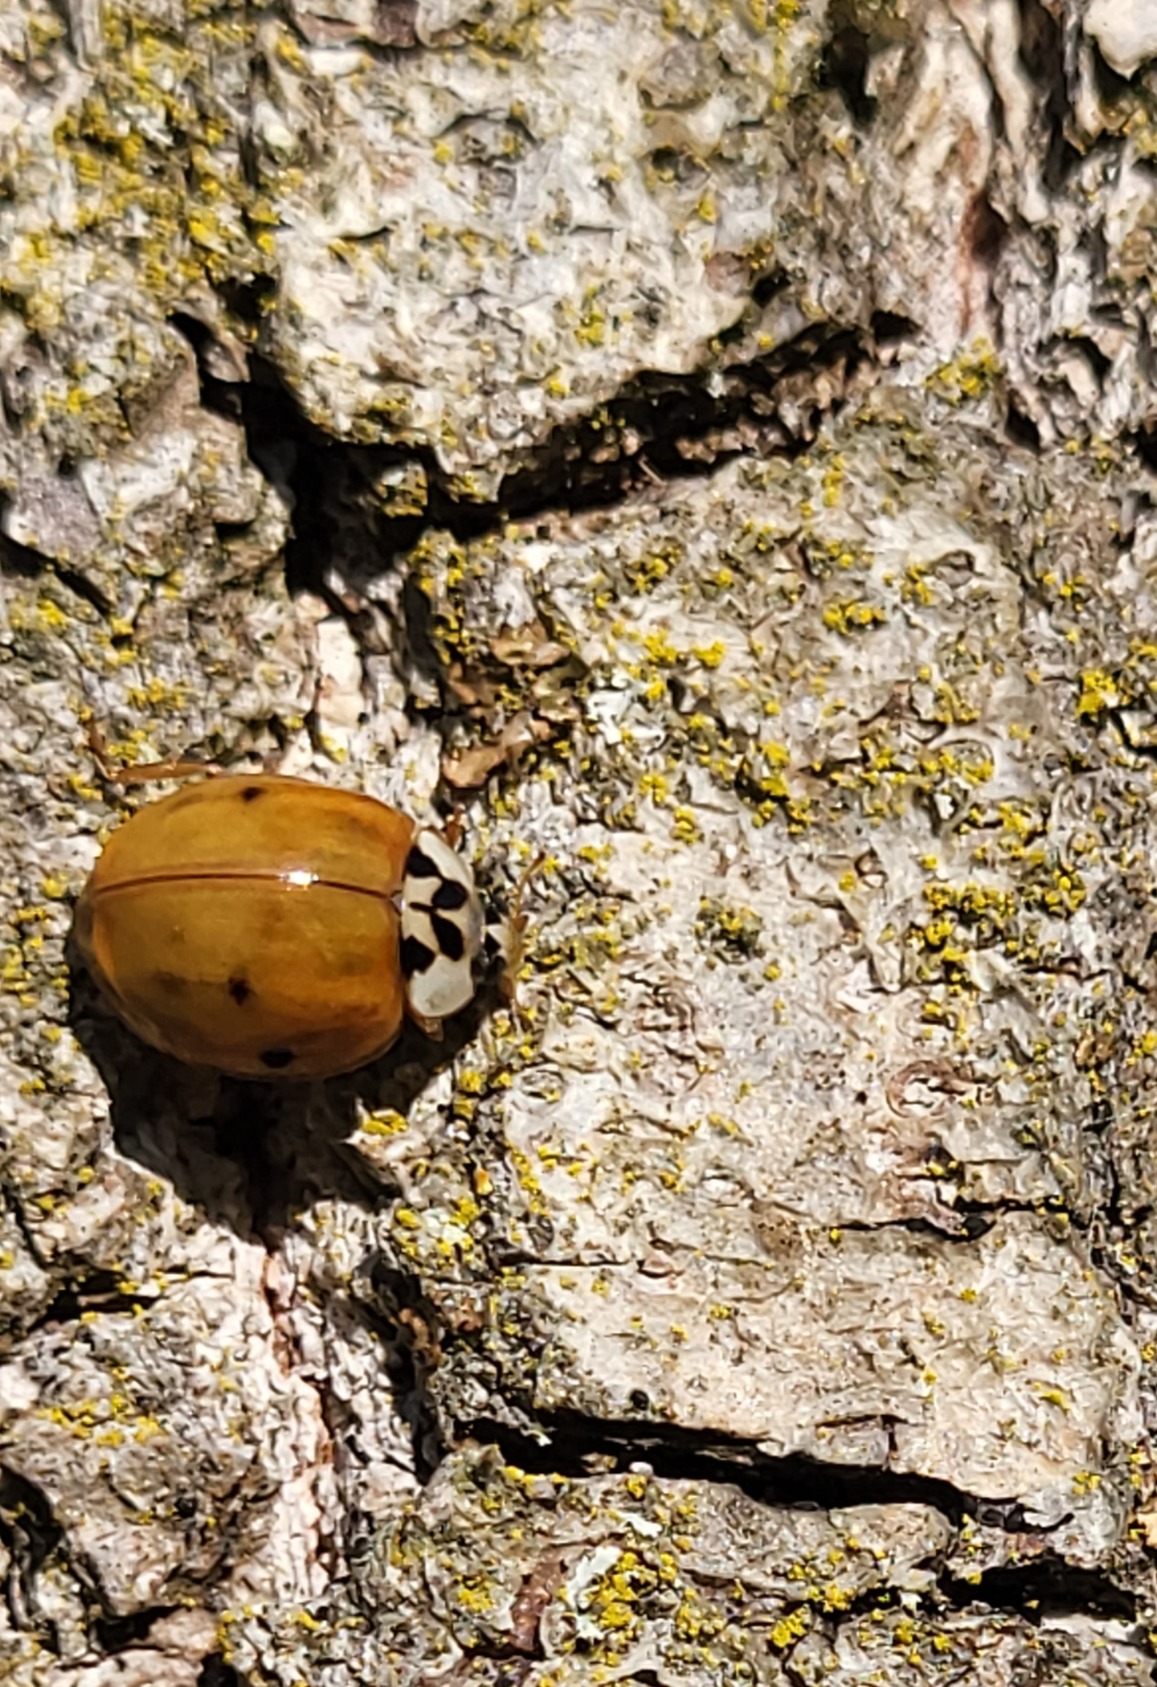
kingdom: Animalia
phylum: Arthropoda
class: Insecta
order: Coleoptera
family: Coccinellidae
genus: Harmonia
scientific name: Harmonia axyridis
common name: Harlekinmariehøne
